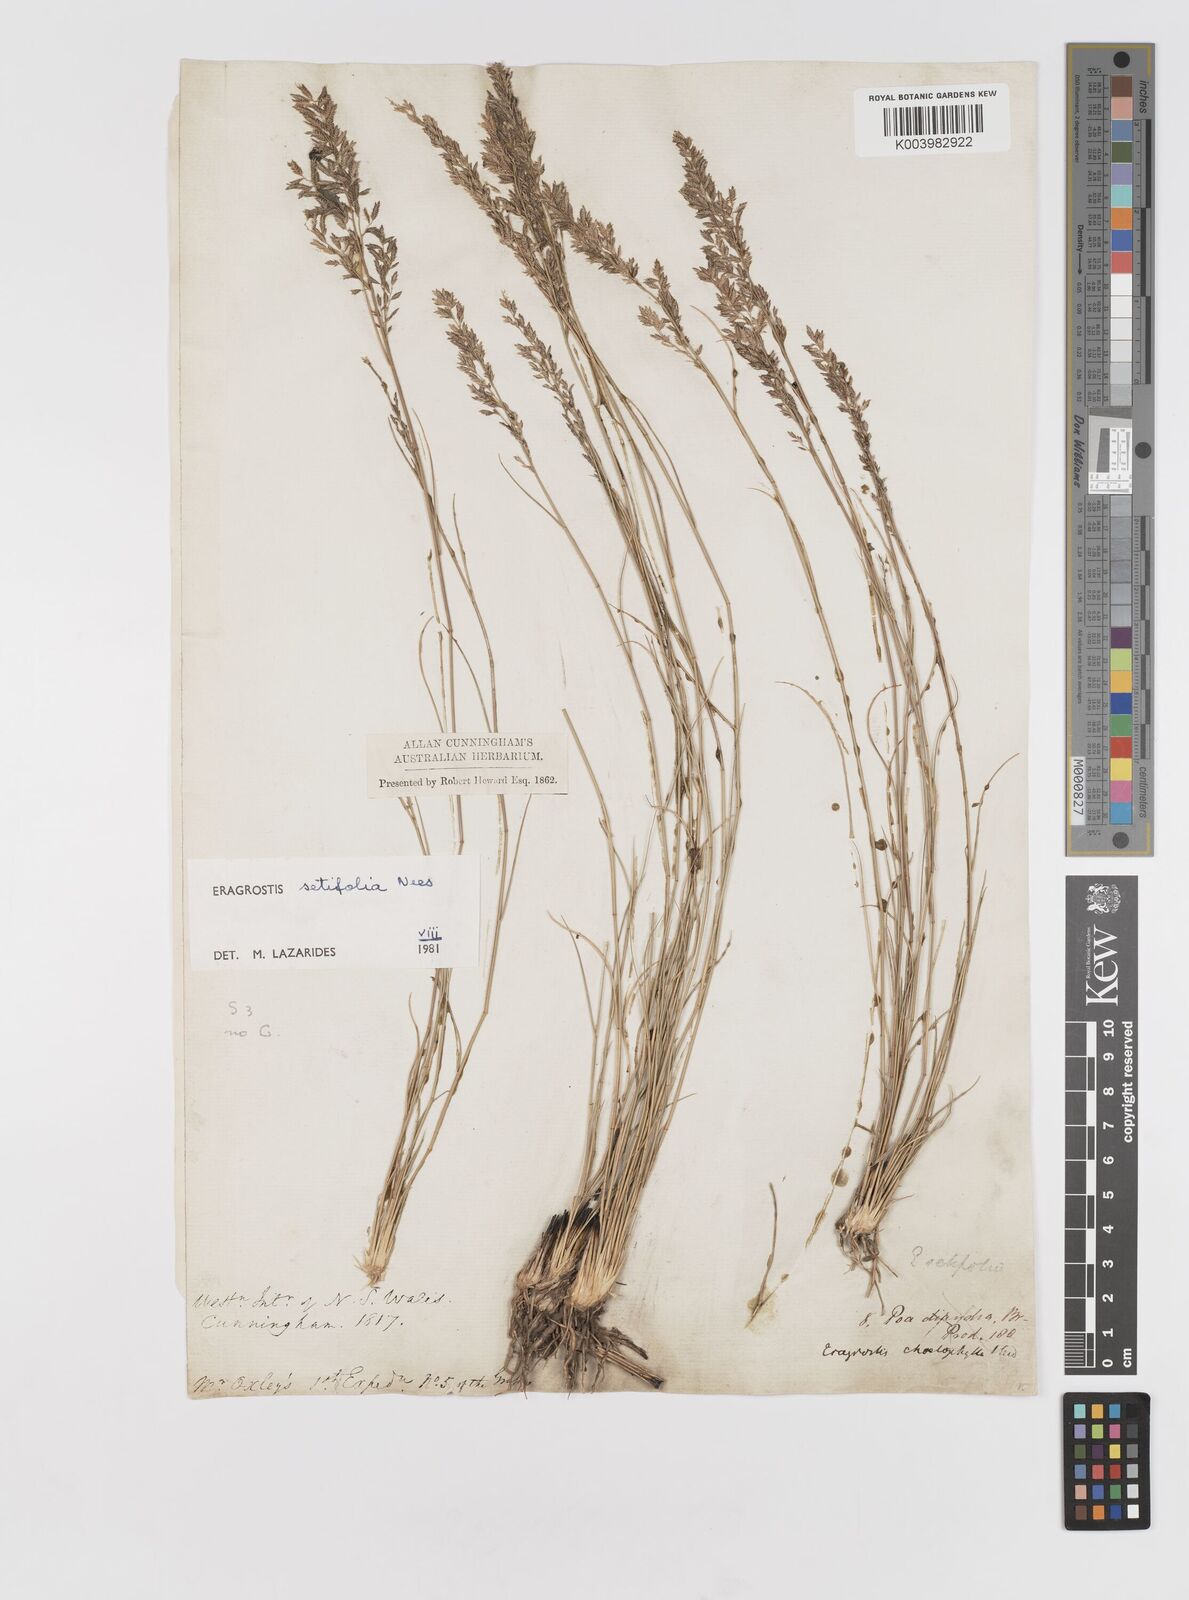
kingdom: Plantae
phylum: Tracheophyta
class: Liliopsida
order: Poales
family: Poaceae
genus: Eragrostis
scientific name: Eragrostis setifolia
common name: Bristleleaf lovegrass
